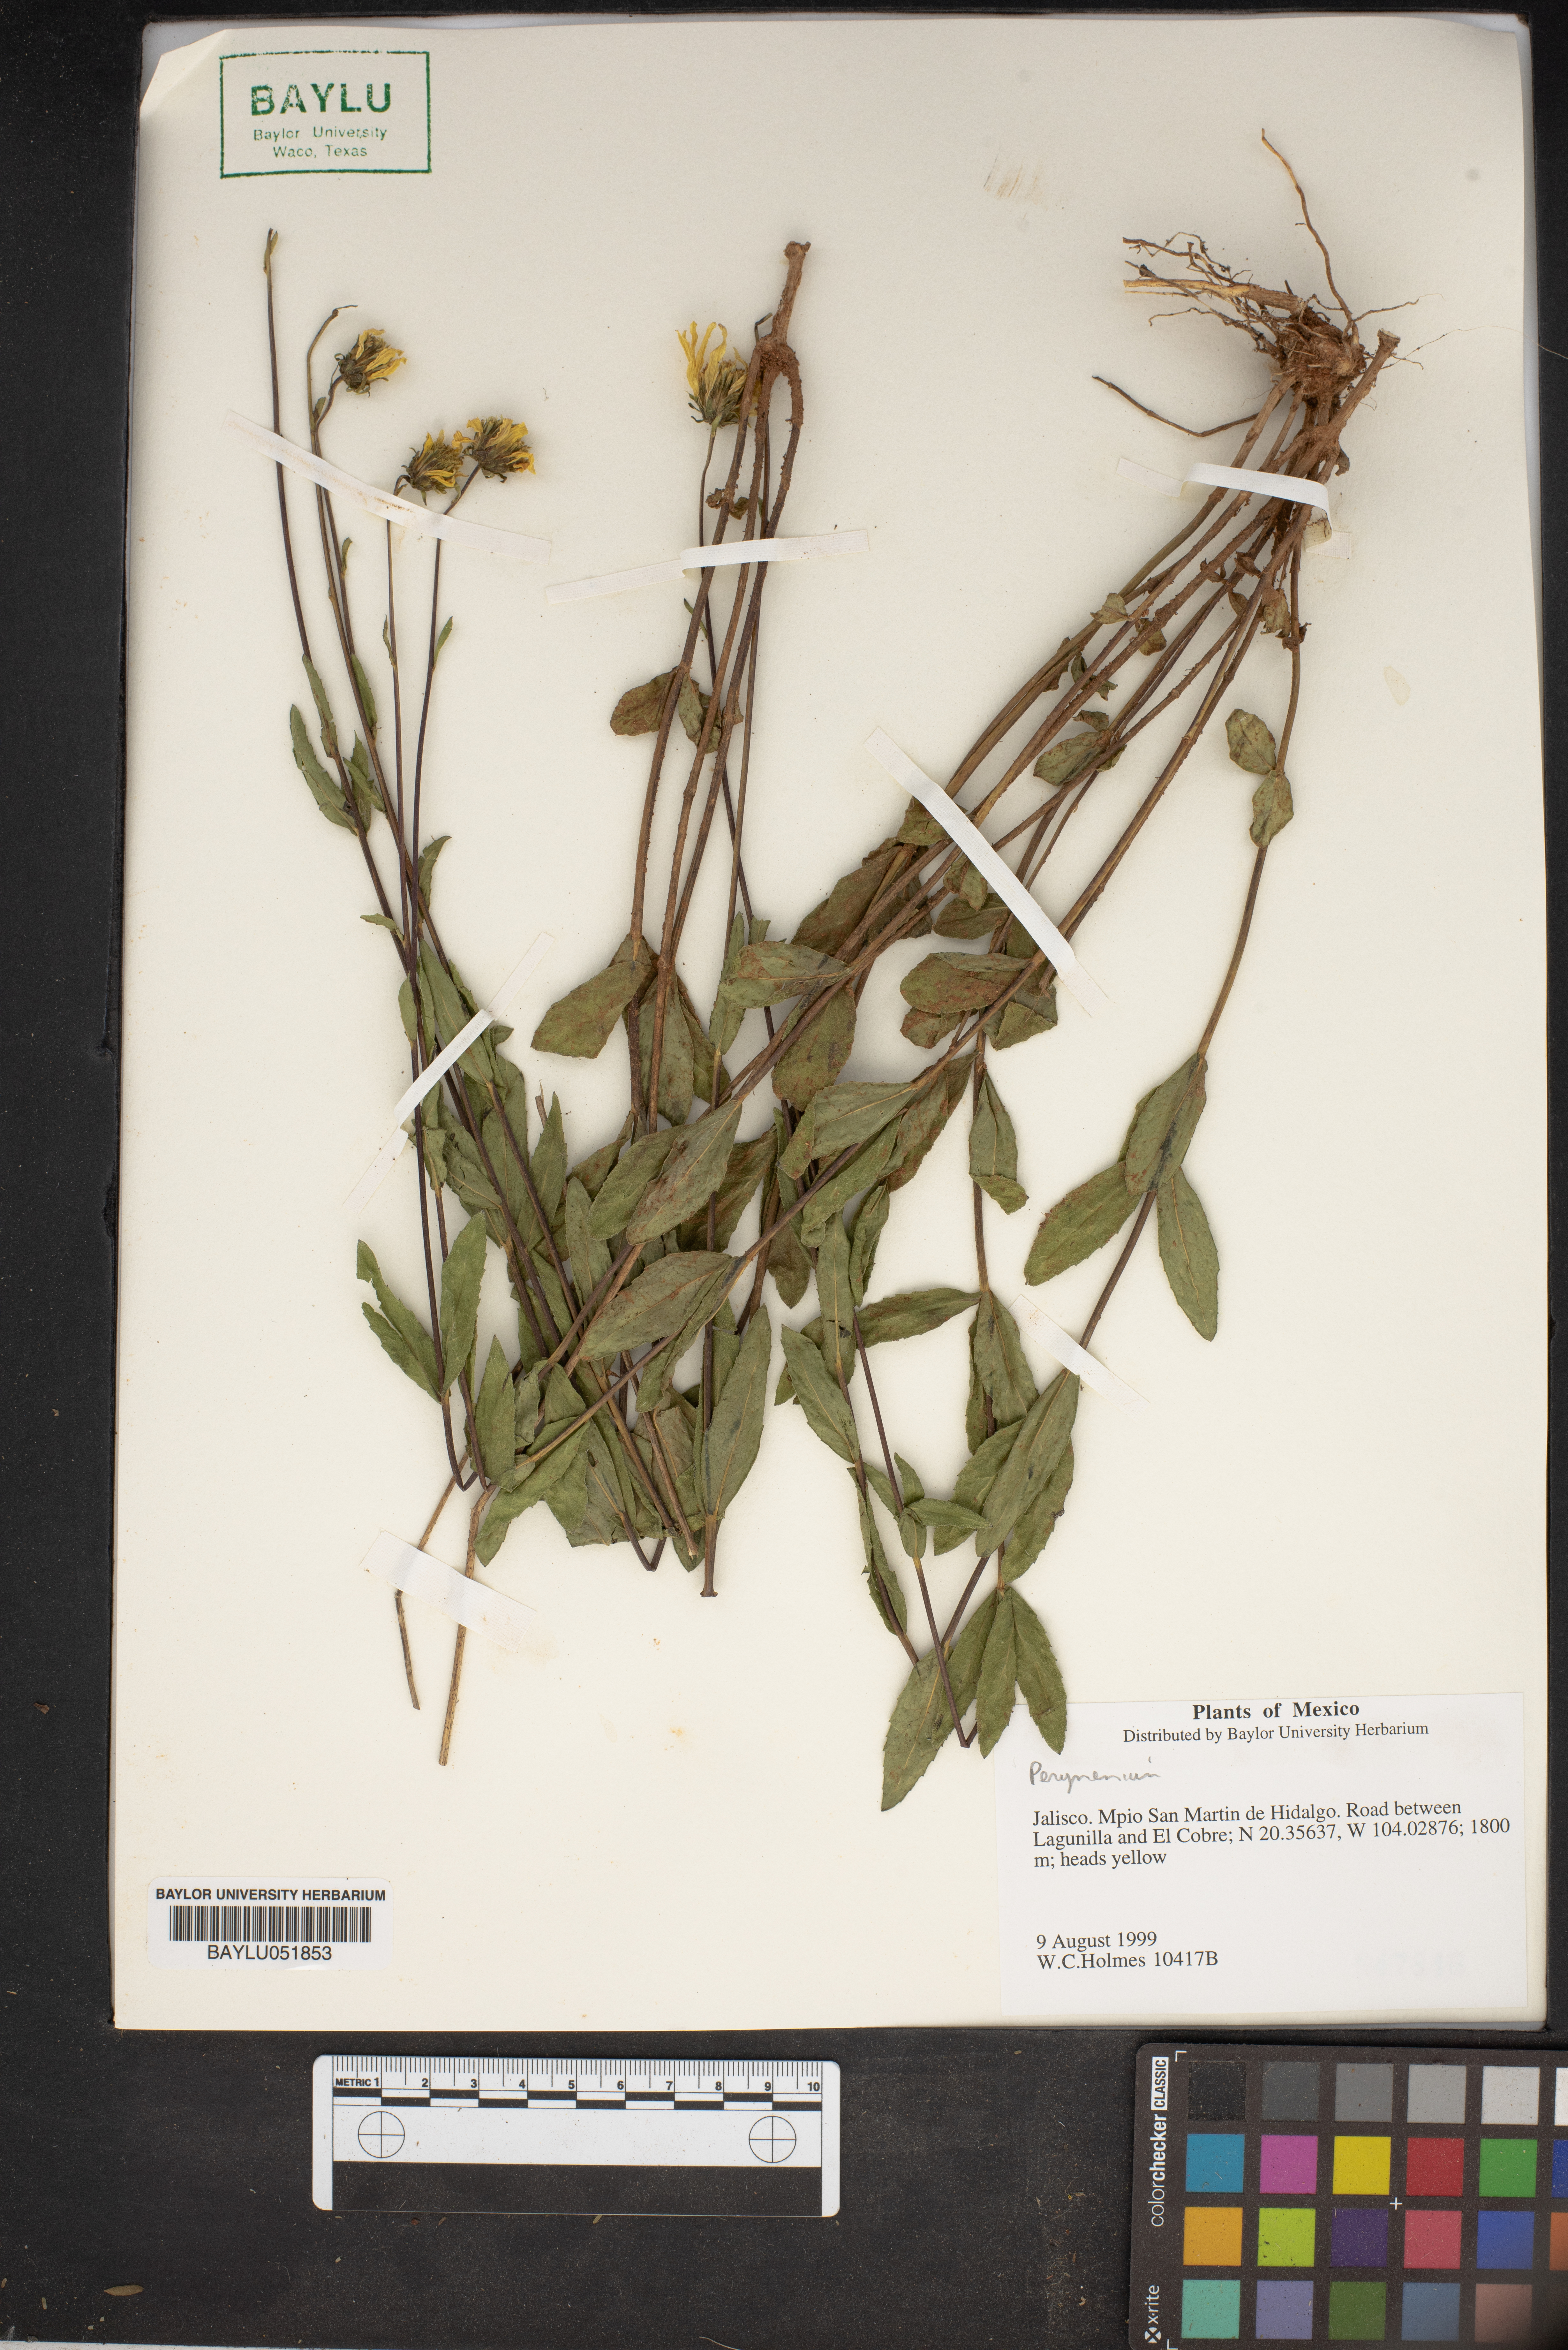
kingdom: Plantae
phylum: Tracheophyta
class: Magnoliopsida
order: Asterales
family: Asteraceae
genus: Perymenium
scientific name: Perymenium
